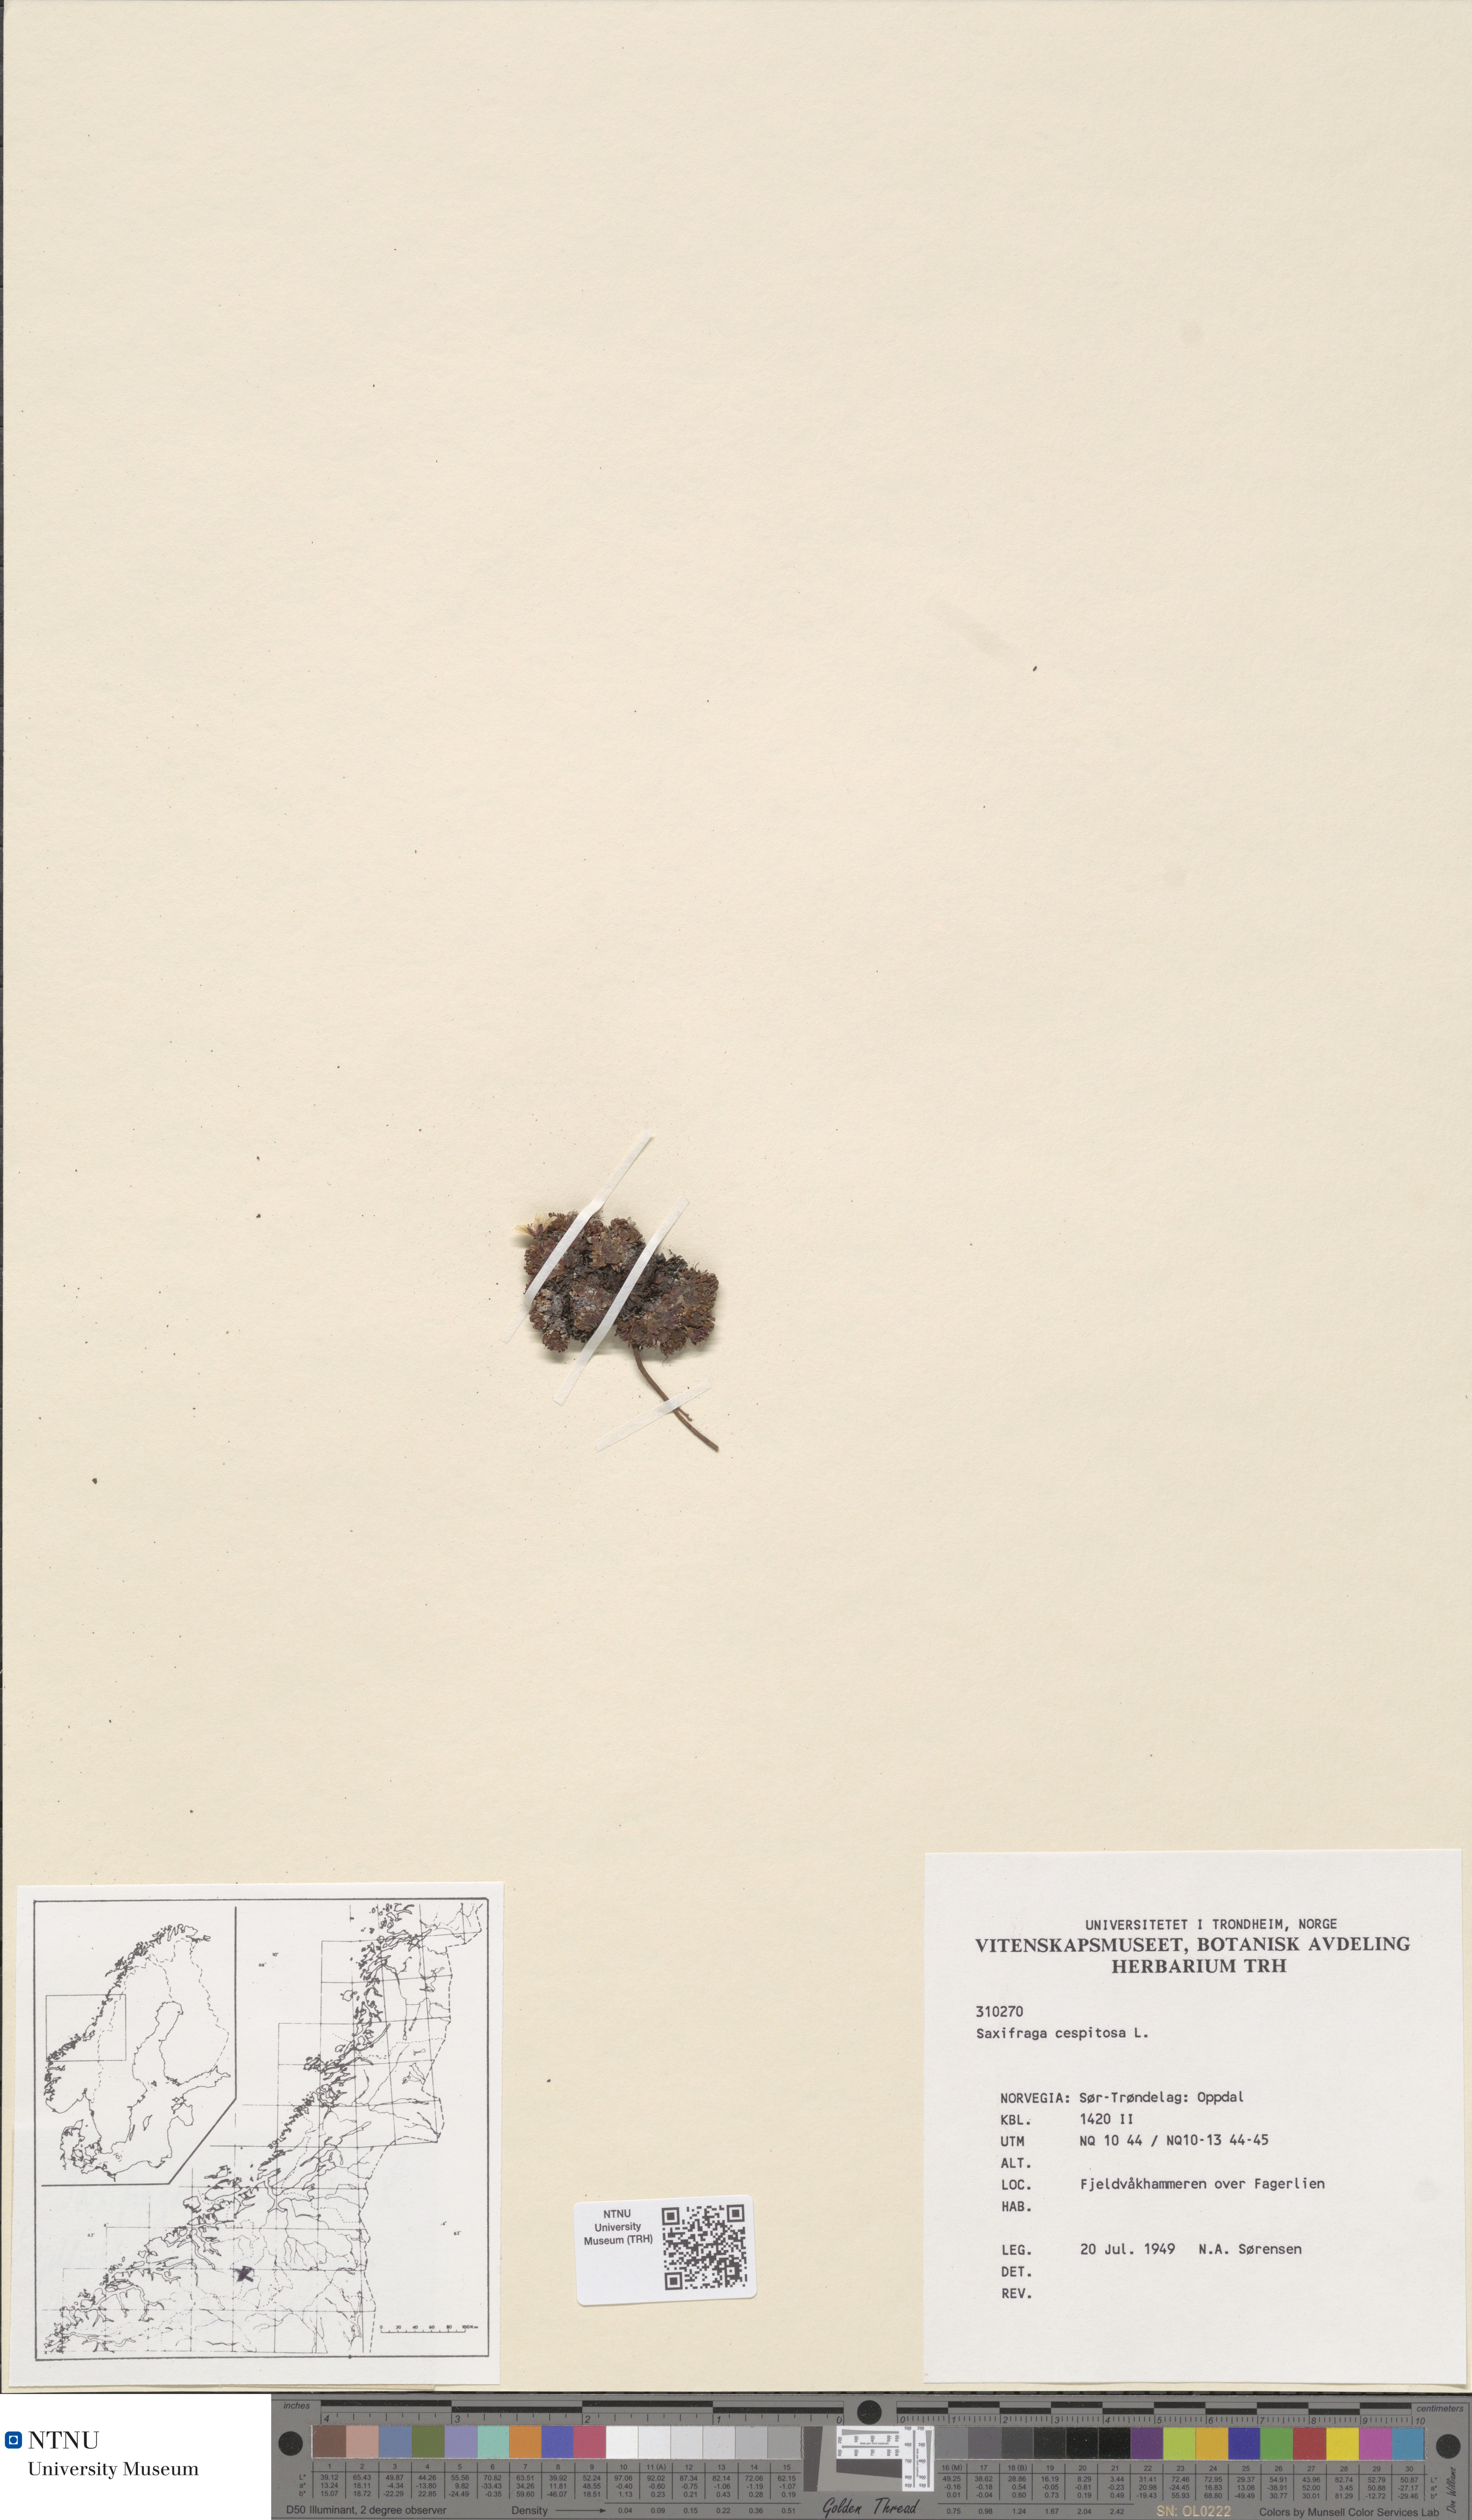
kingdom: Plantae
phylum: Tracheophyta
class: Magnoliopsida
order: Saxifragales
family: Saxifragaceae
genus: Saxifraga
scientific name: Saxifraga cespitosa
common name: Tufted saxifrage
